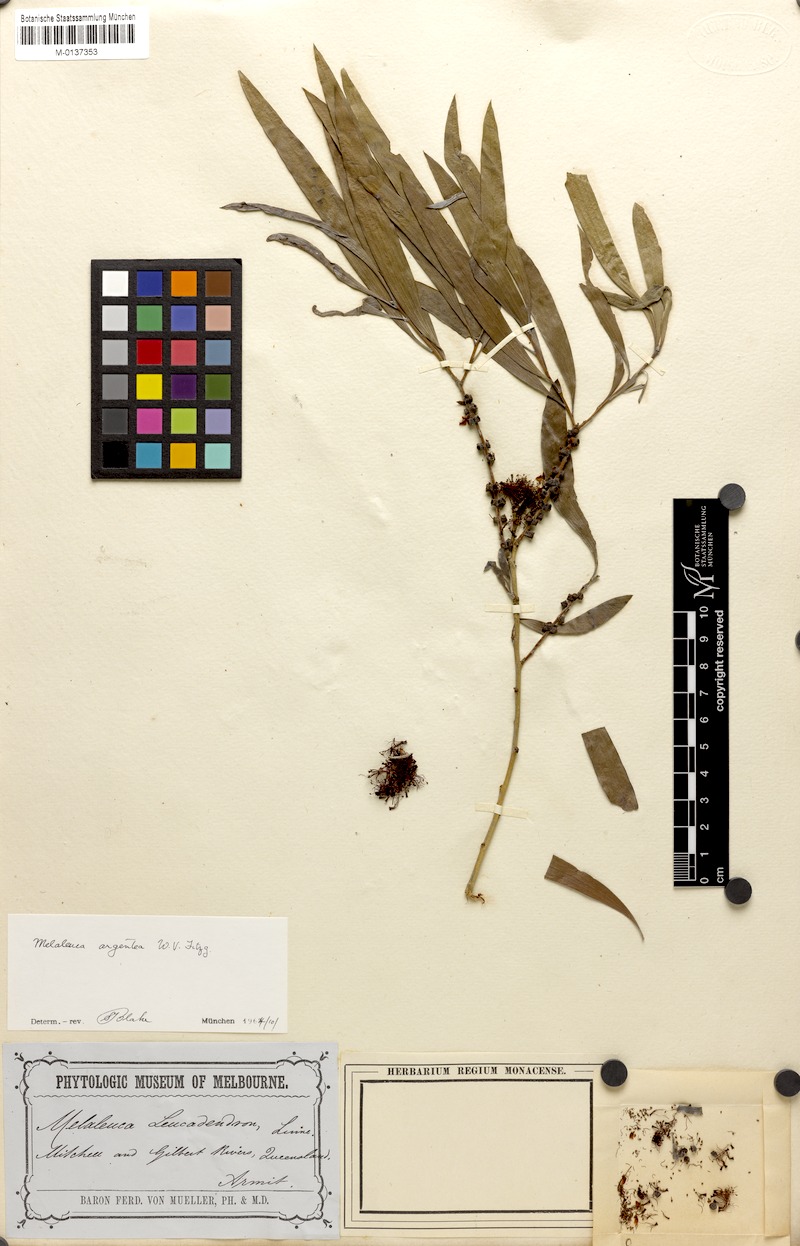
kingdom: Plantae
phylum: Tracheophyta
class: Magnoliopsida
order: Myrtales
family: Myrtaceae
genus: Melaleuca
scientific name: Melaleuca argentea
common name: Silver cadjeput
